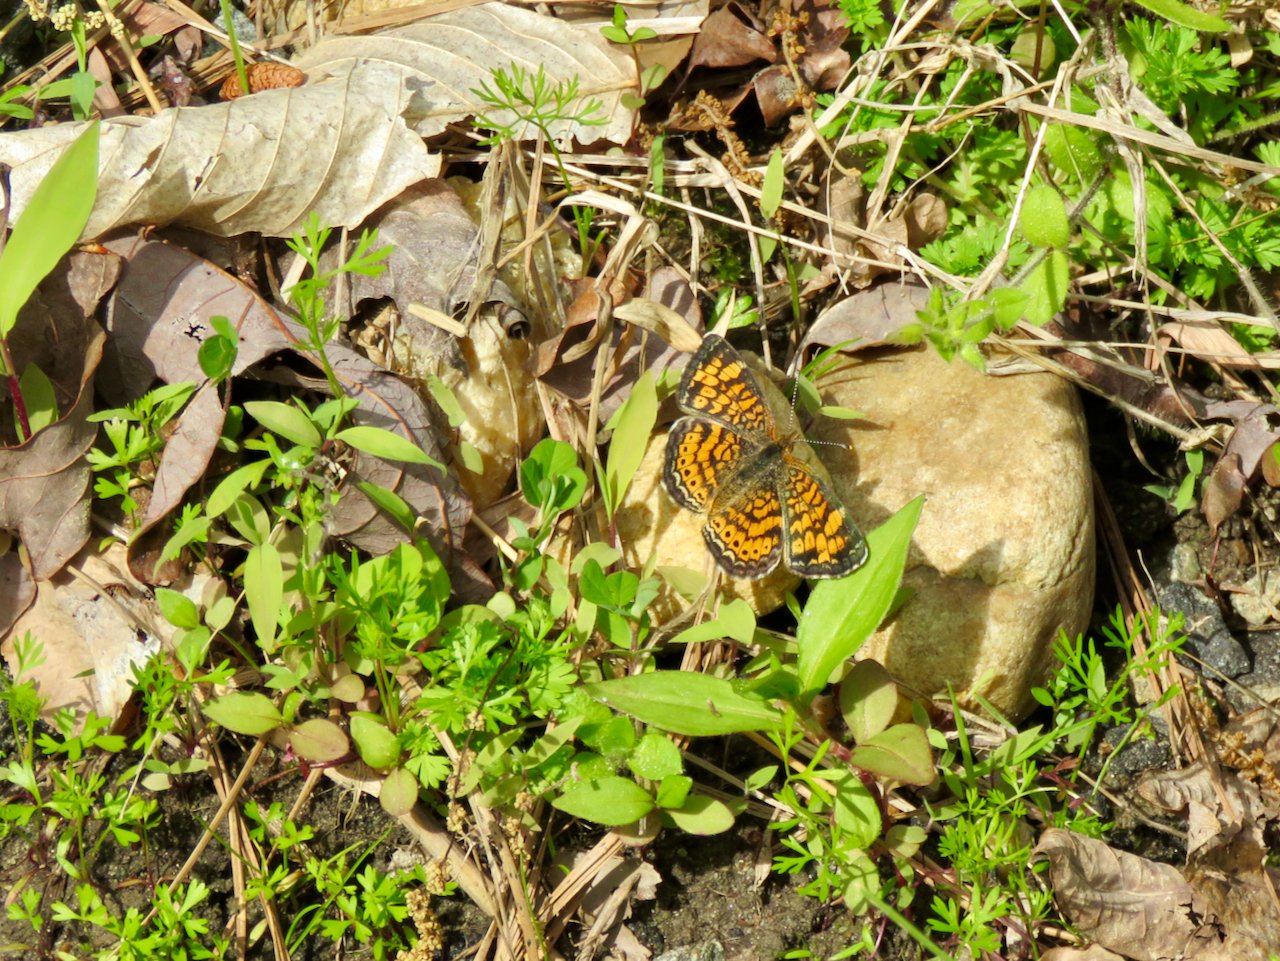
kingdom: Animalia
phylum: Arthropoda
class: Insecta
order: Lepidoptera
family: Nymphalidae
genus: Phyciodes
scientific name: Phyciodes tharos
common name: Pearl Crescent
